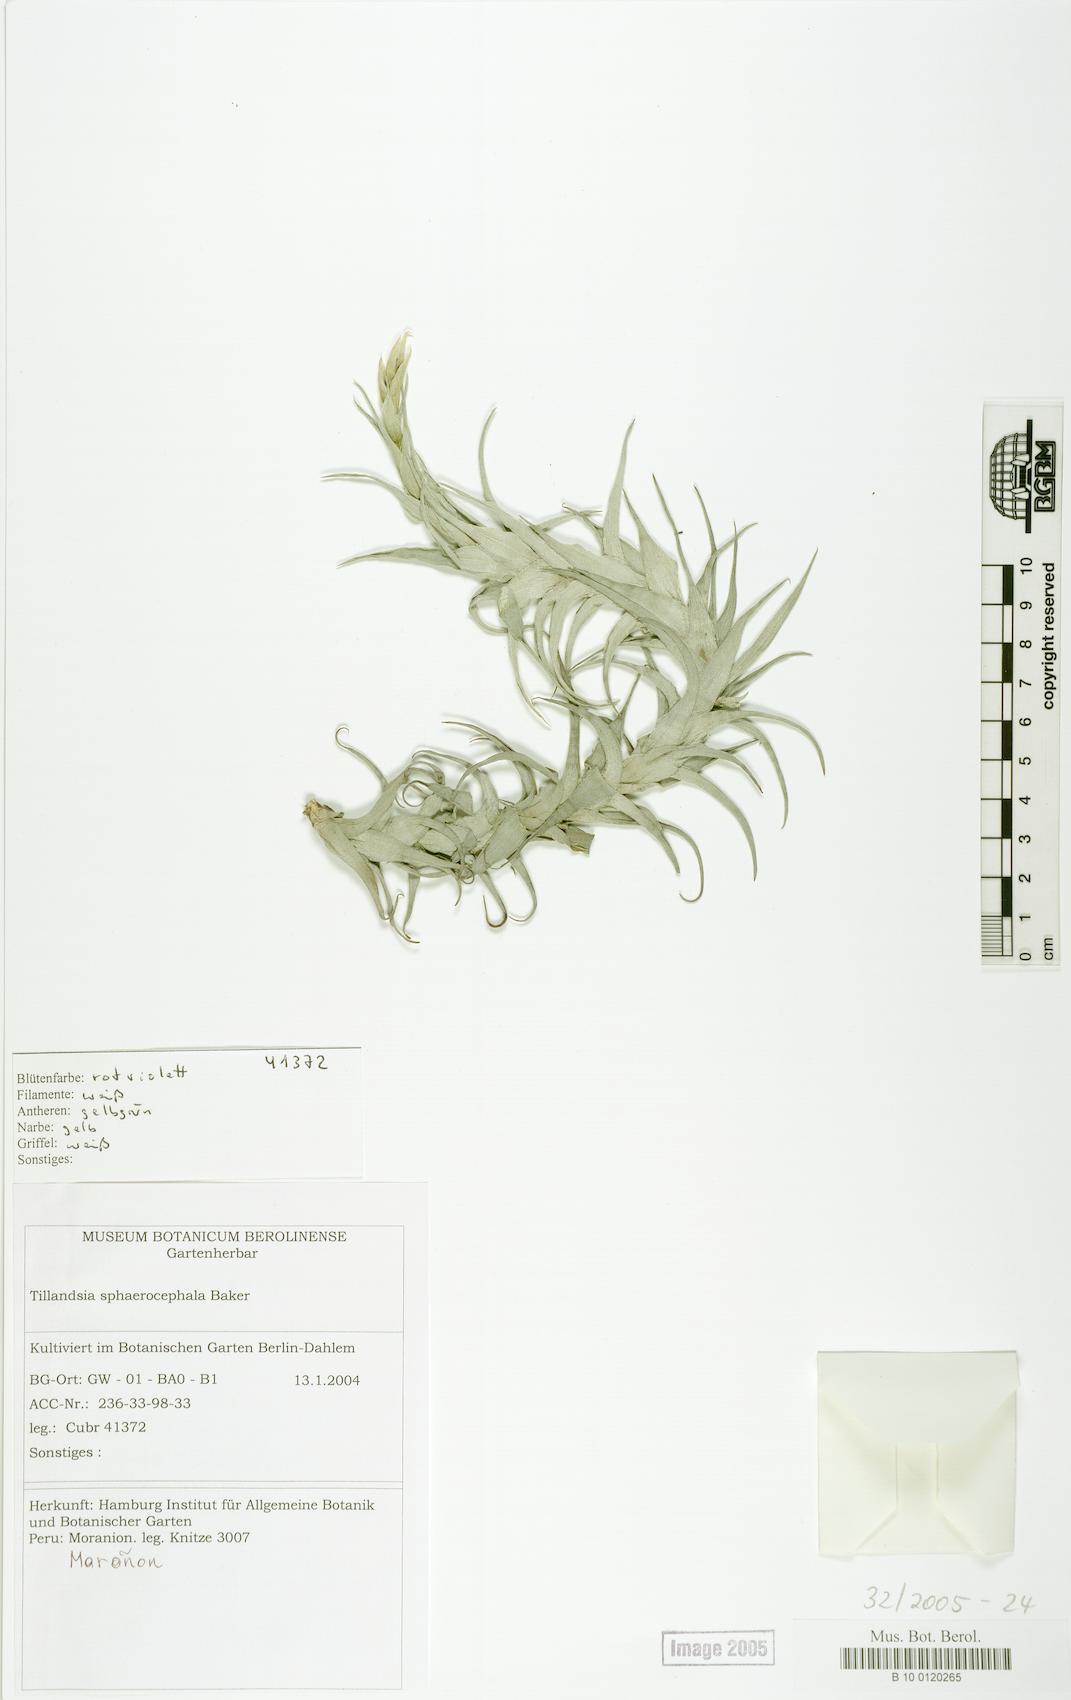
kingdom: Plantae
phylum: Tracheophyta
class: Liliopsida
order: Poales
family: Bromeliaceae
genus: Tillandsia
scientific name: Tillandsia sphaerocephala
